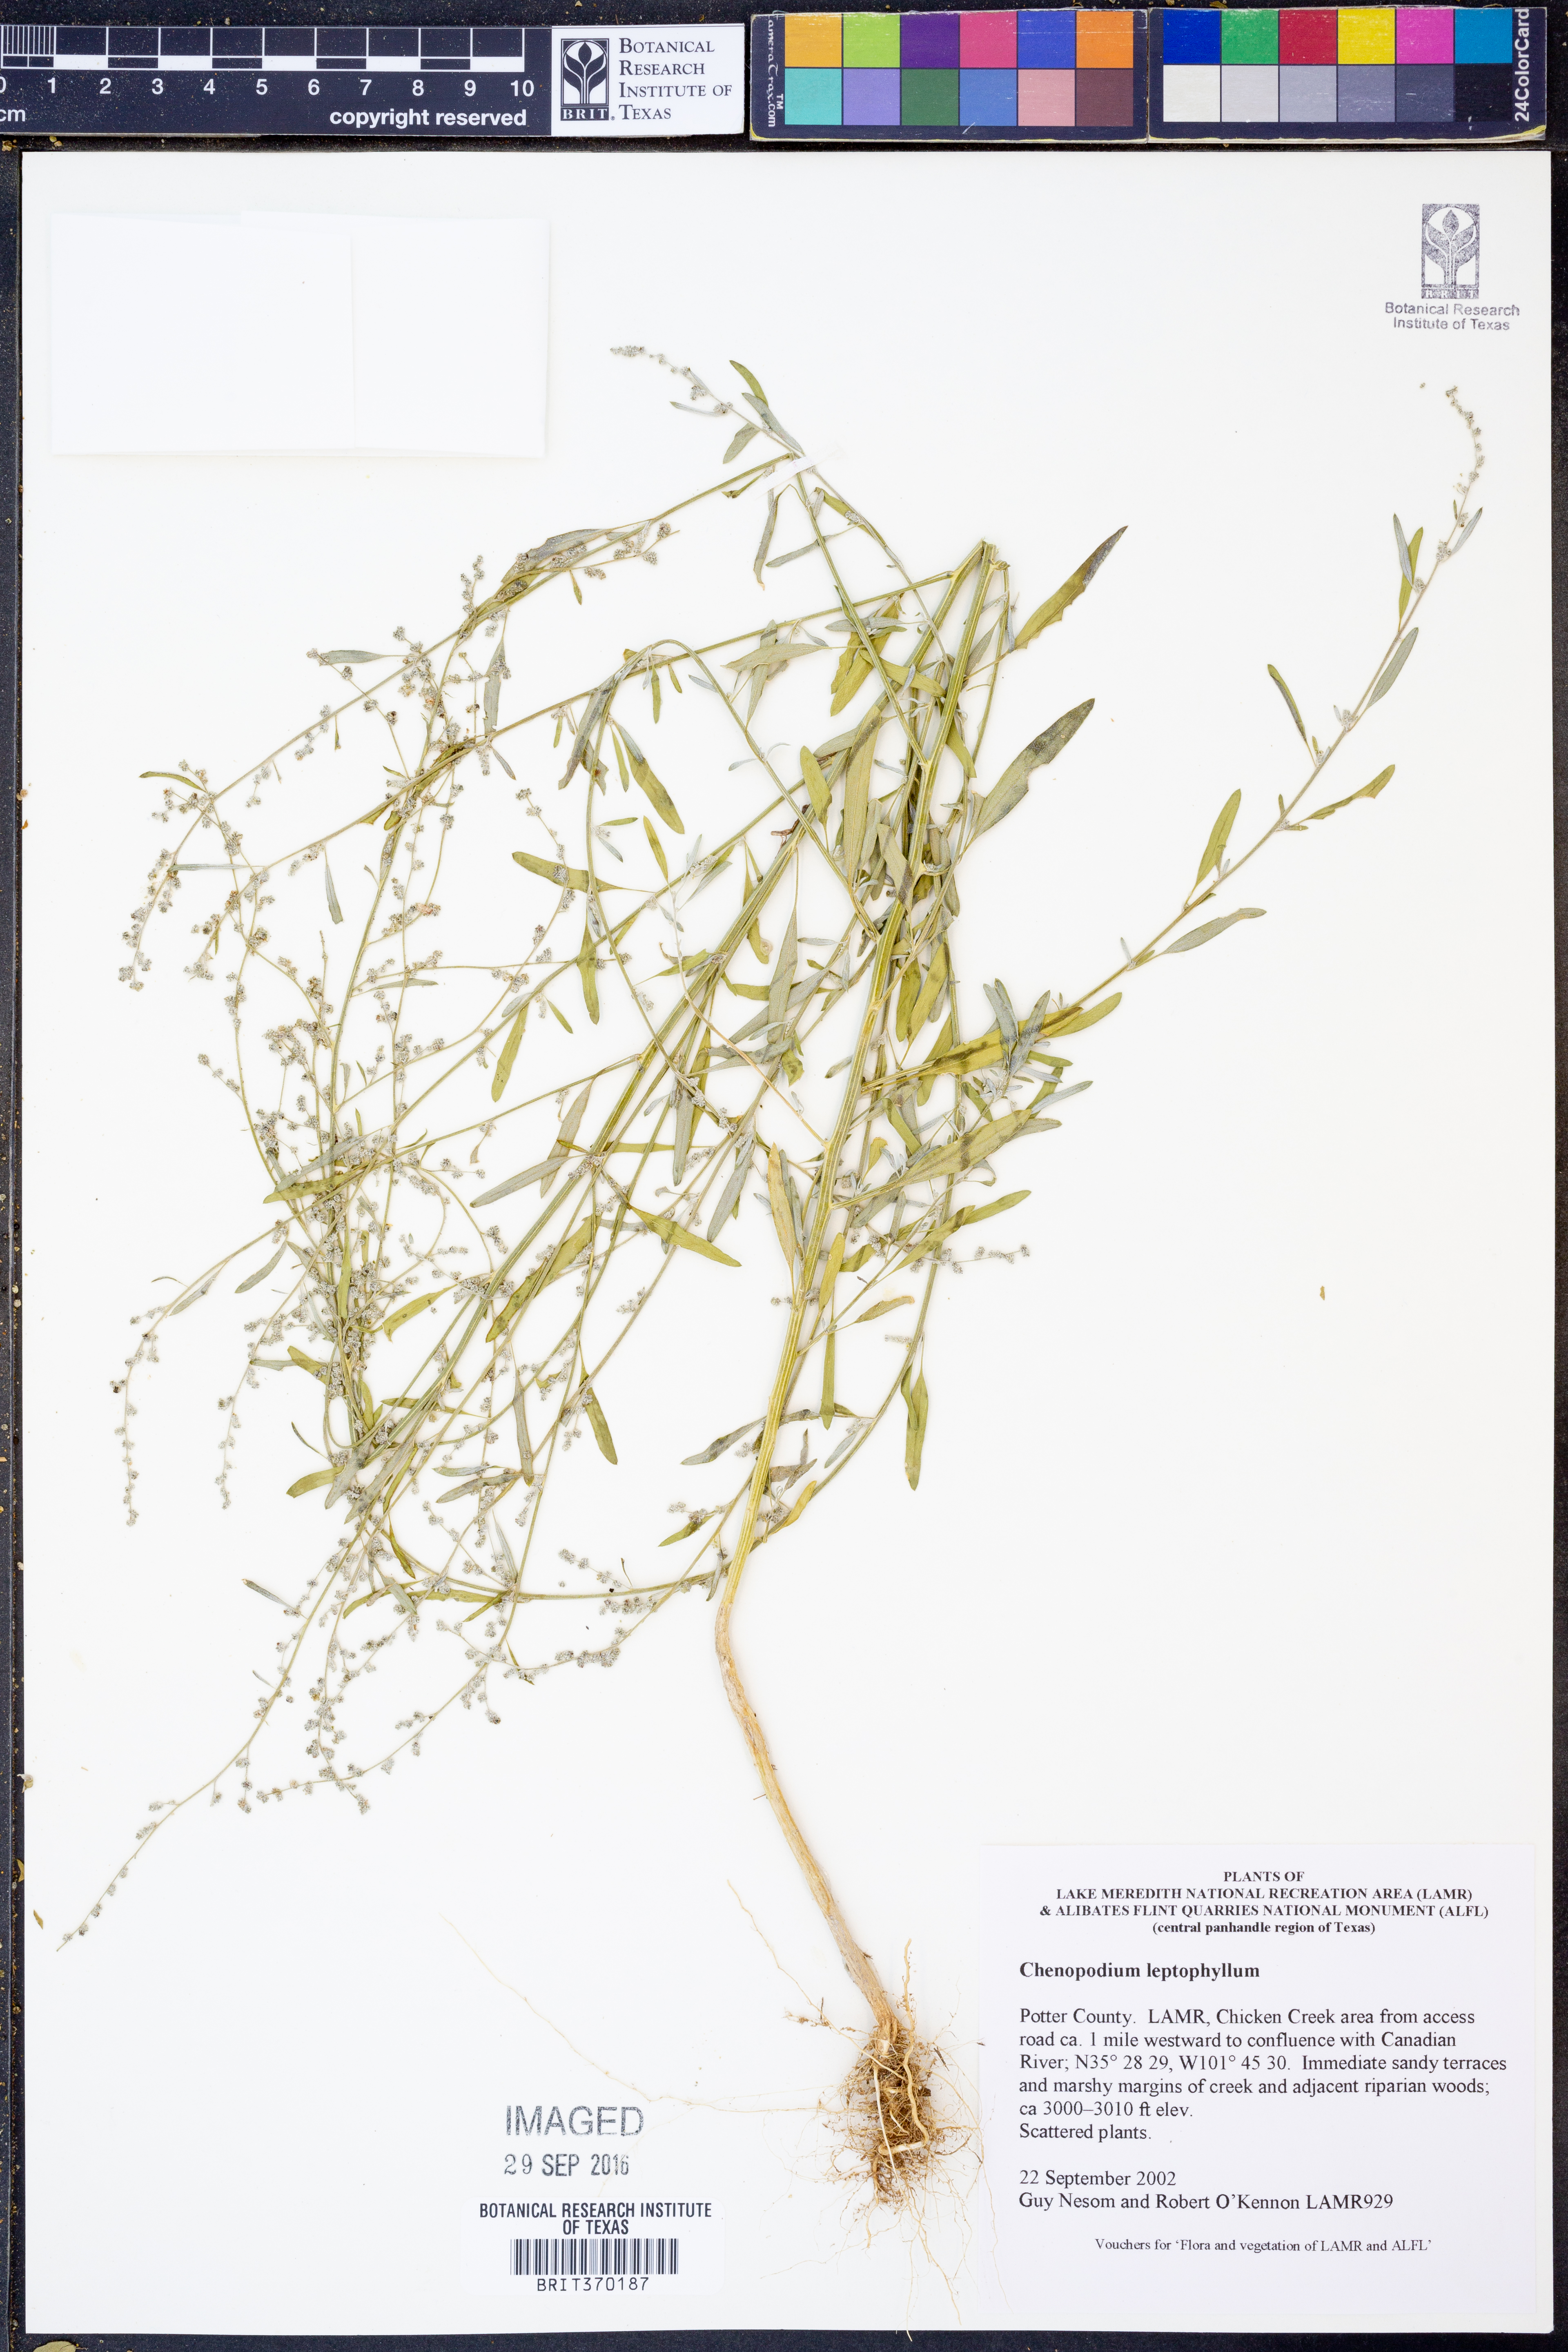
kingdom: Plantae
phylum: Tracheophyta
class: Magnoliopsida
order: Caryophyllales
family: Amaranthaceae
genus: Chenopodium
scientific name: Chenopodium leptophyllum
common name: Narrow-leaf goosefoot
